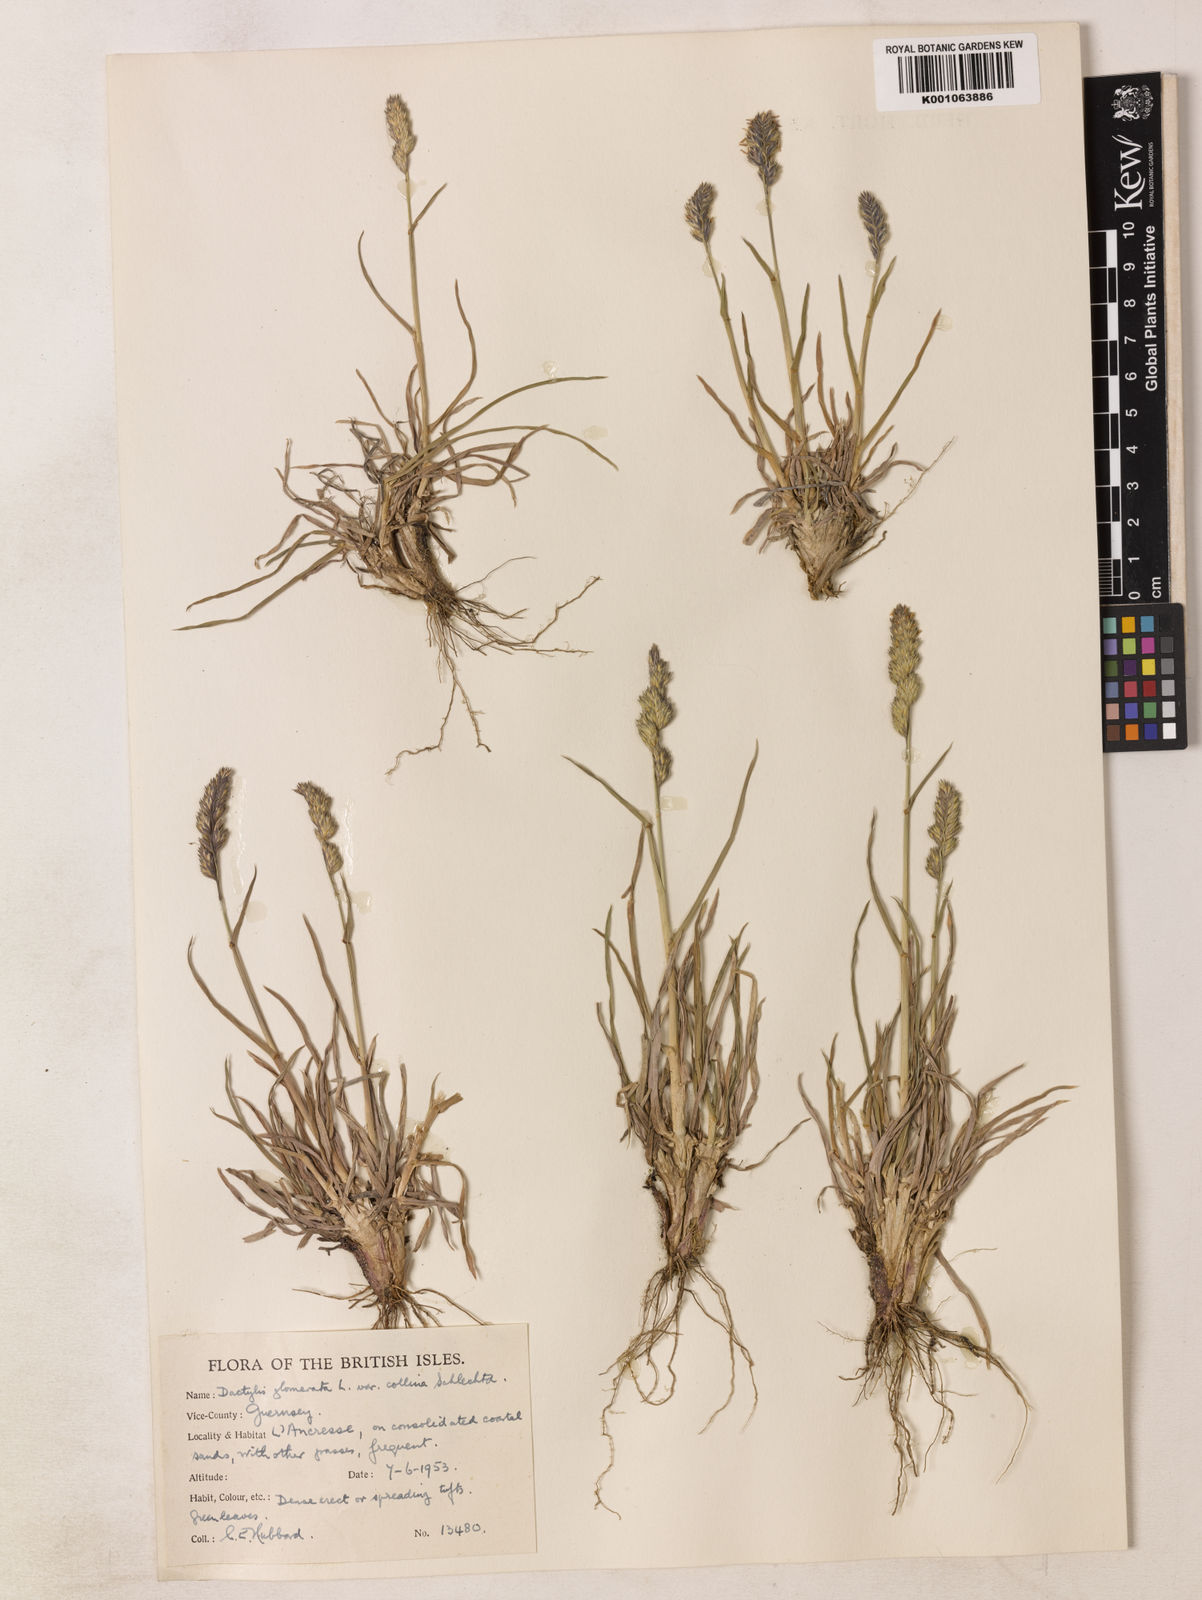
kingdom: Plantae
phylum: Tracheophyta
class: Liliopsida
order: Poales
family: Poaceae
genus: Dactylis
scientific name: Dactylis glomerata
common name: Orchardgrass
